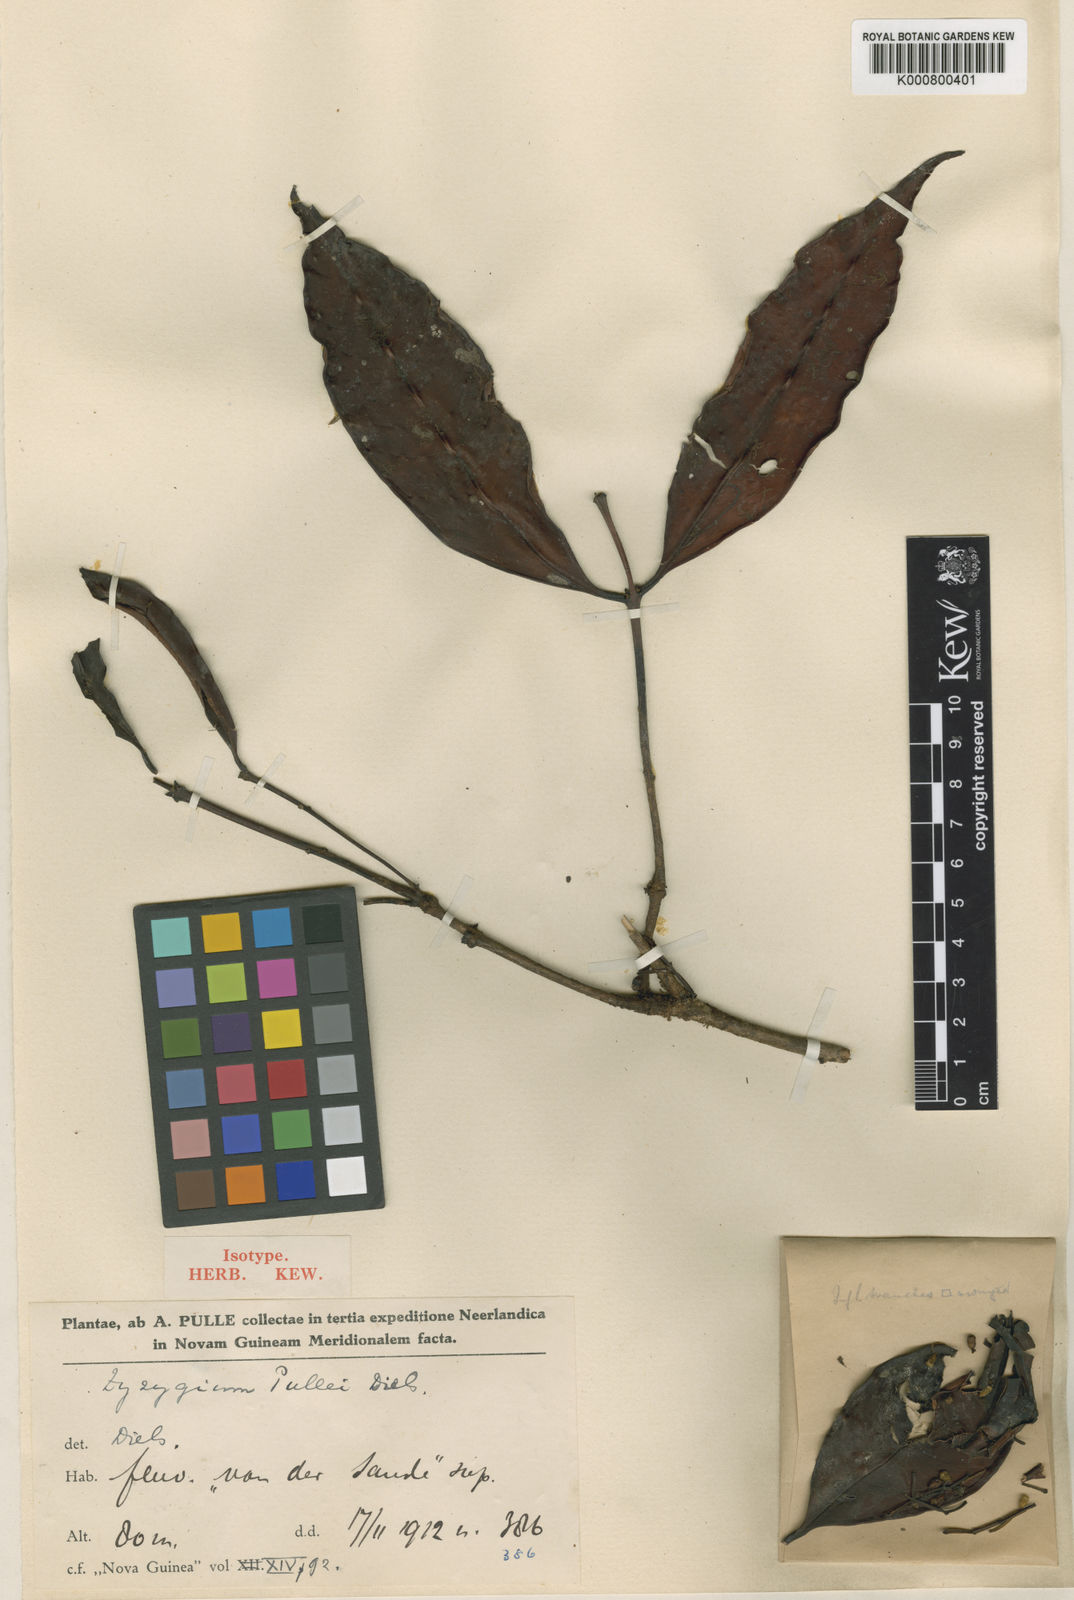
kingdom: Plantae
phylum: Tracheophyta
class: Magnoliopsida
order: Myrtales
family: Myrtaceae
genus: Syzygium
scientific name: Syzygium pullei
